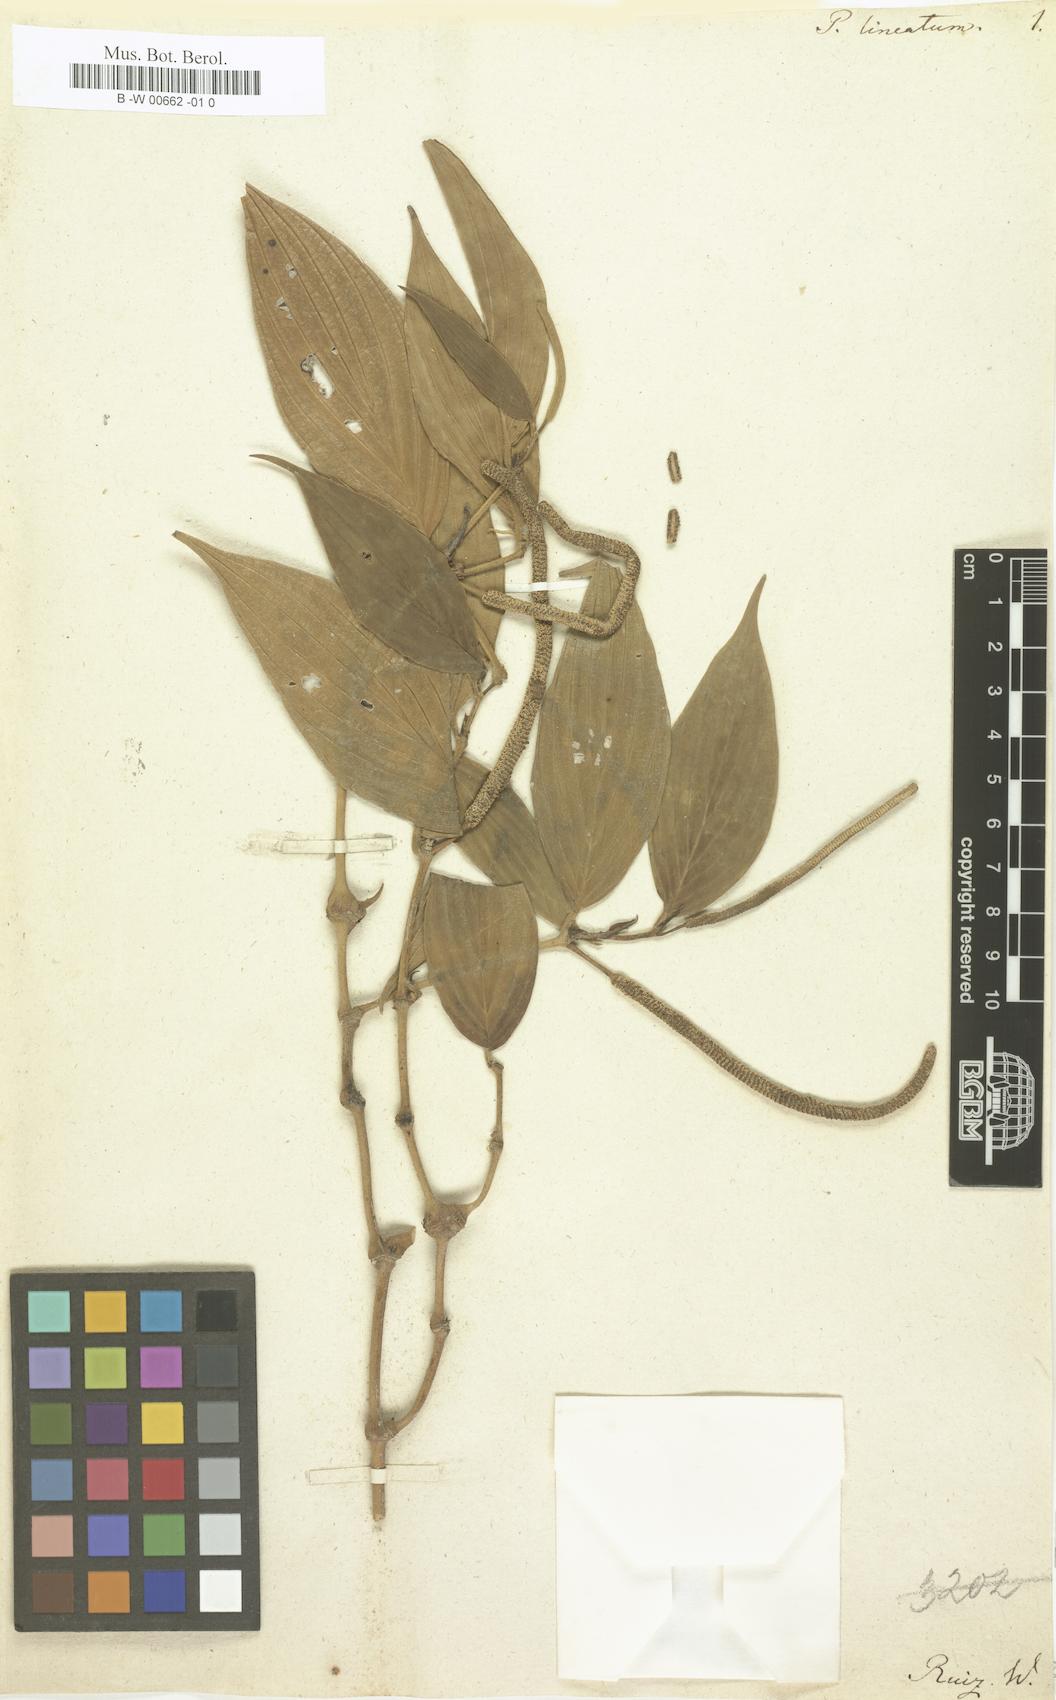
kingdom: Plantae
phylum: Tracheophyta
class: Magnoliopsida
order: Piperales
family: Piperaceae
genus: Piper
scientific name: Piper lineatum
